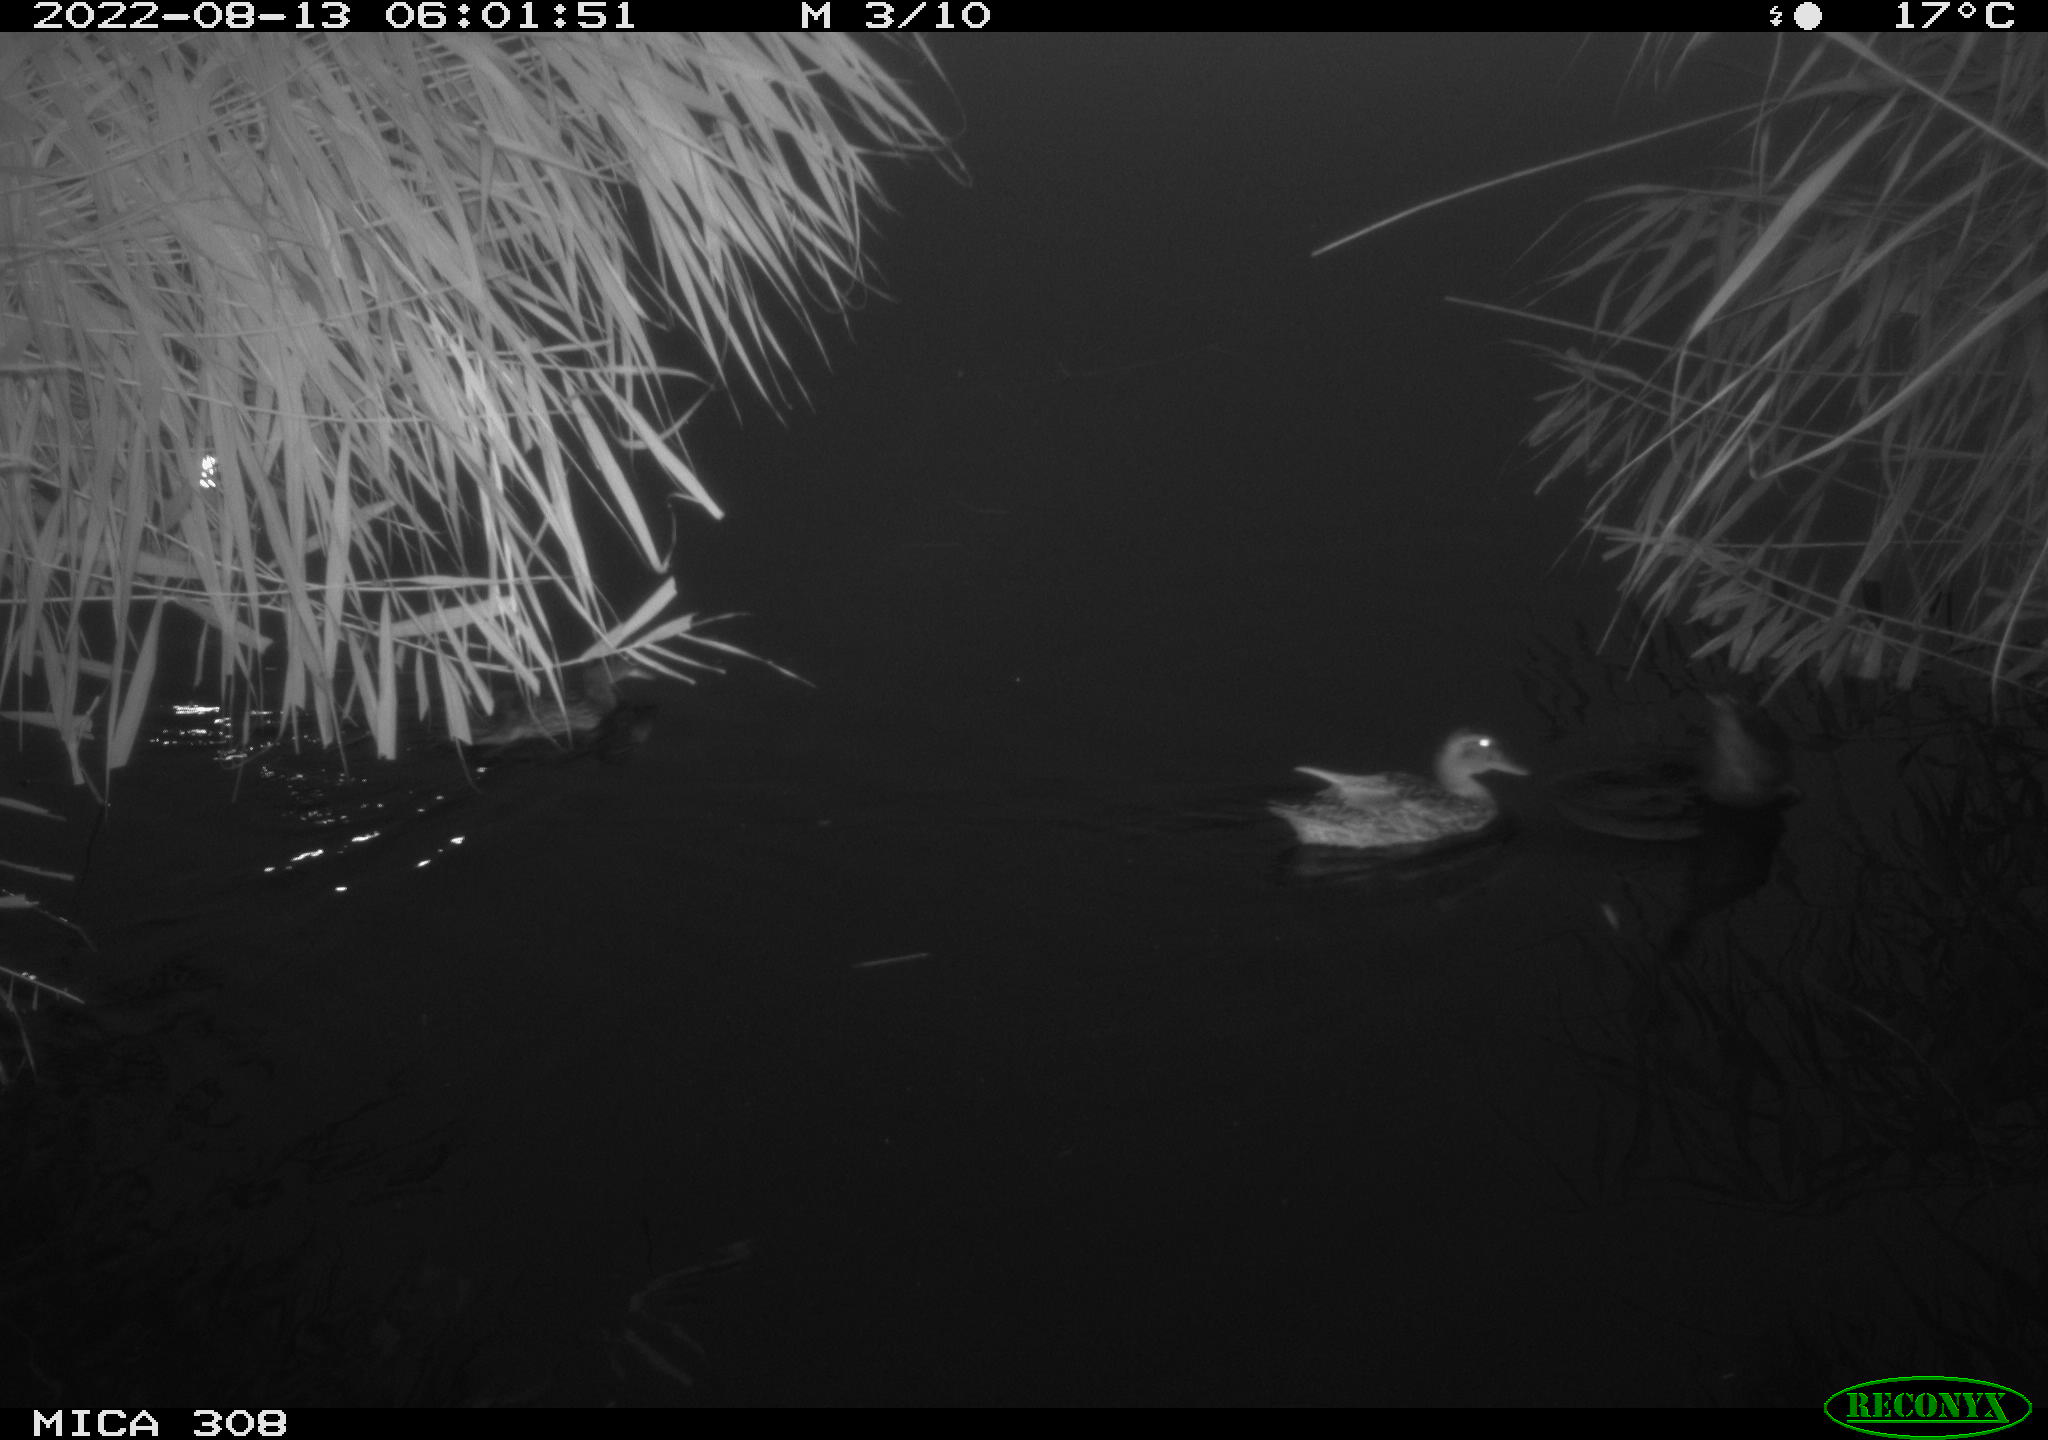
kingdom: Animalia
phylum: Chordata
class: Aves
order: Anseriformes
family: Anatidae
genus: Anas
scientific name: Anas platyrhynchos
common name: Mallard
